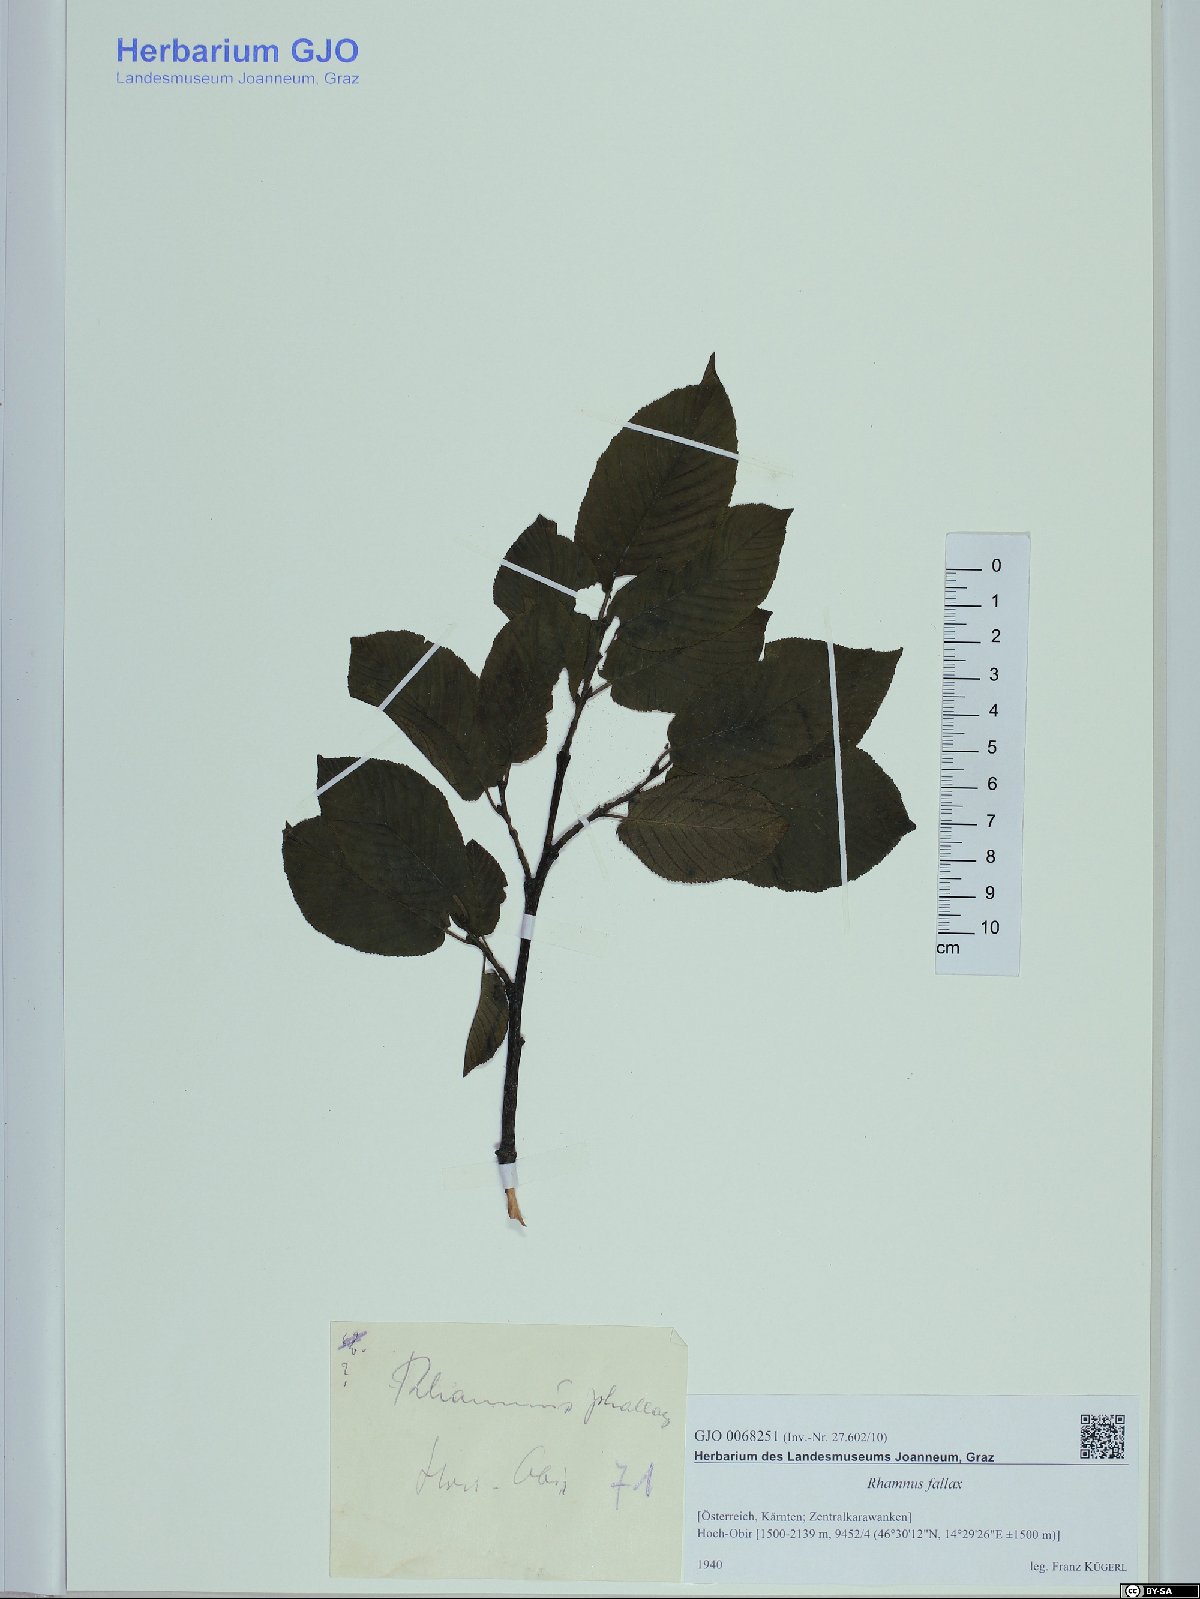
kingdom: Plantae
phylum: Tracheophyta
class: Magnoliopsida
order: Rosales
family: Rhamnaceae
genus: Atadinus
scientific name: Atadinus fallax
